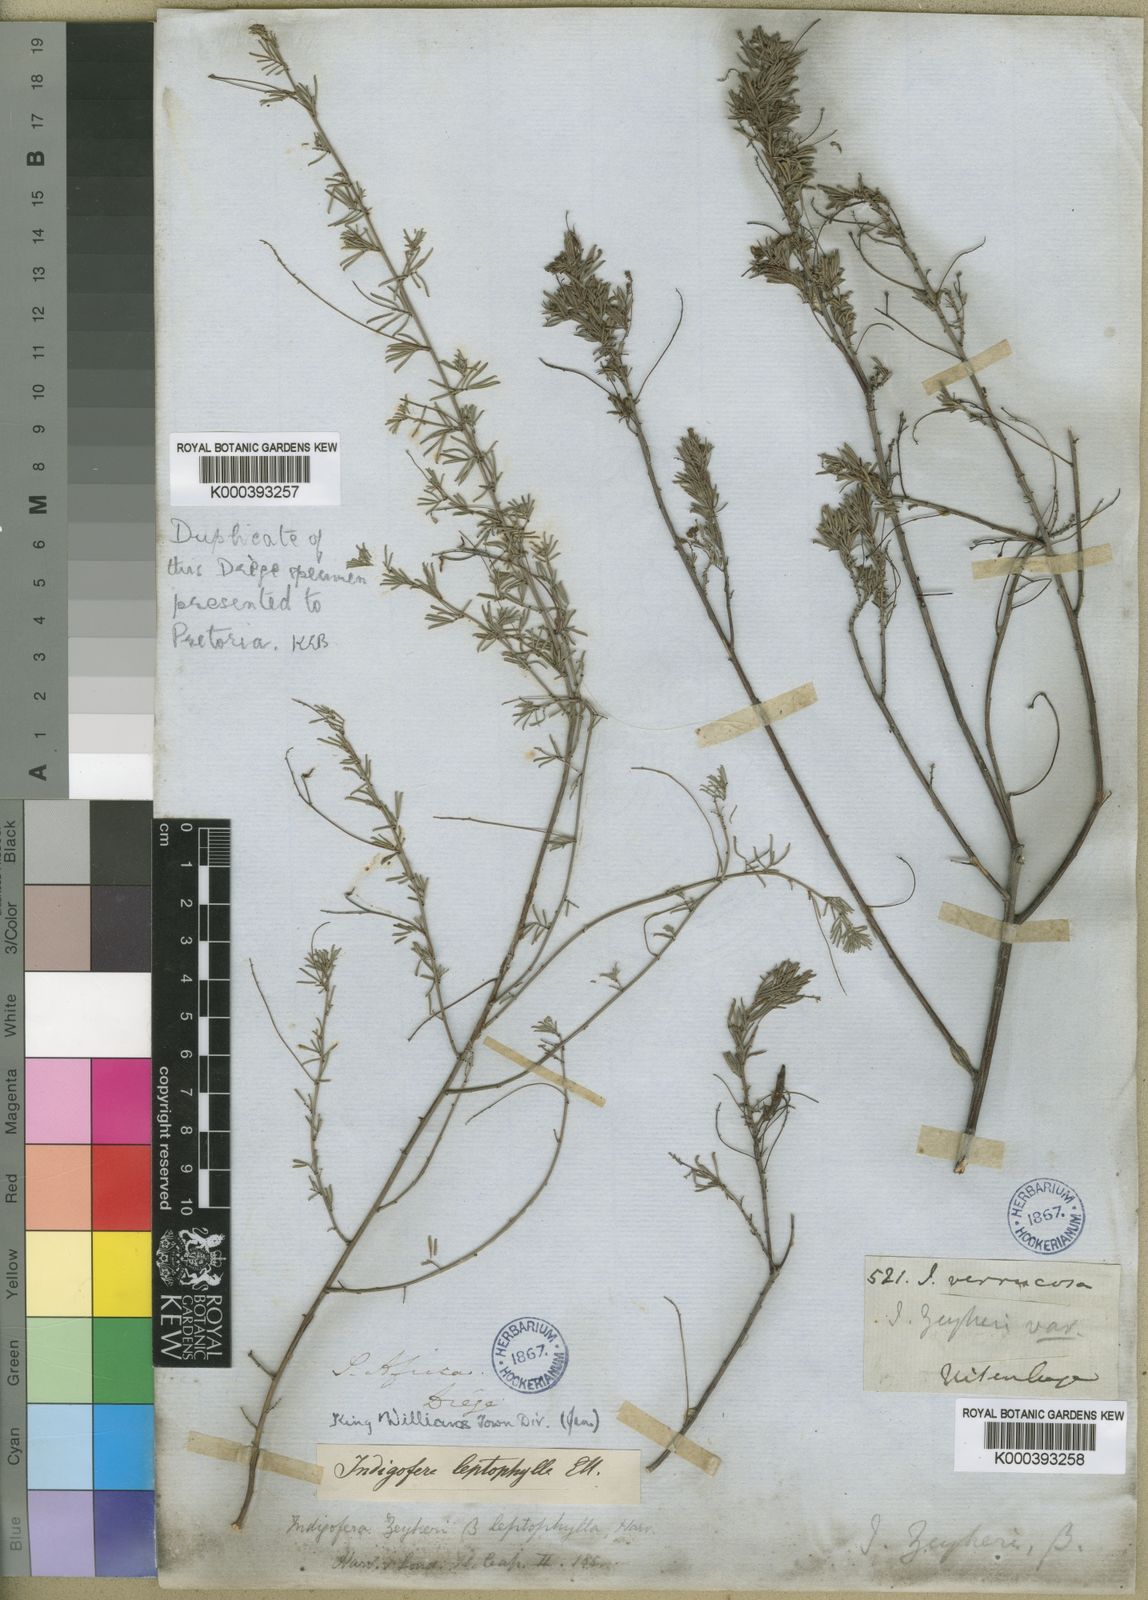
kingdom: Plantae
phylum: Tracheophyta
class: Magnoliopsida
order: Fabales
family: Fabaceae
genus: Indigofera
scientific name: Indigofera verrucosa
